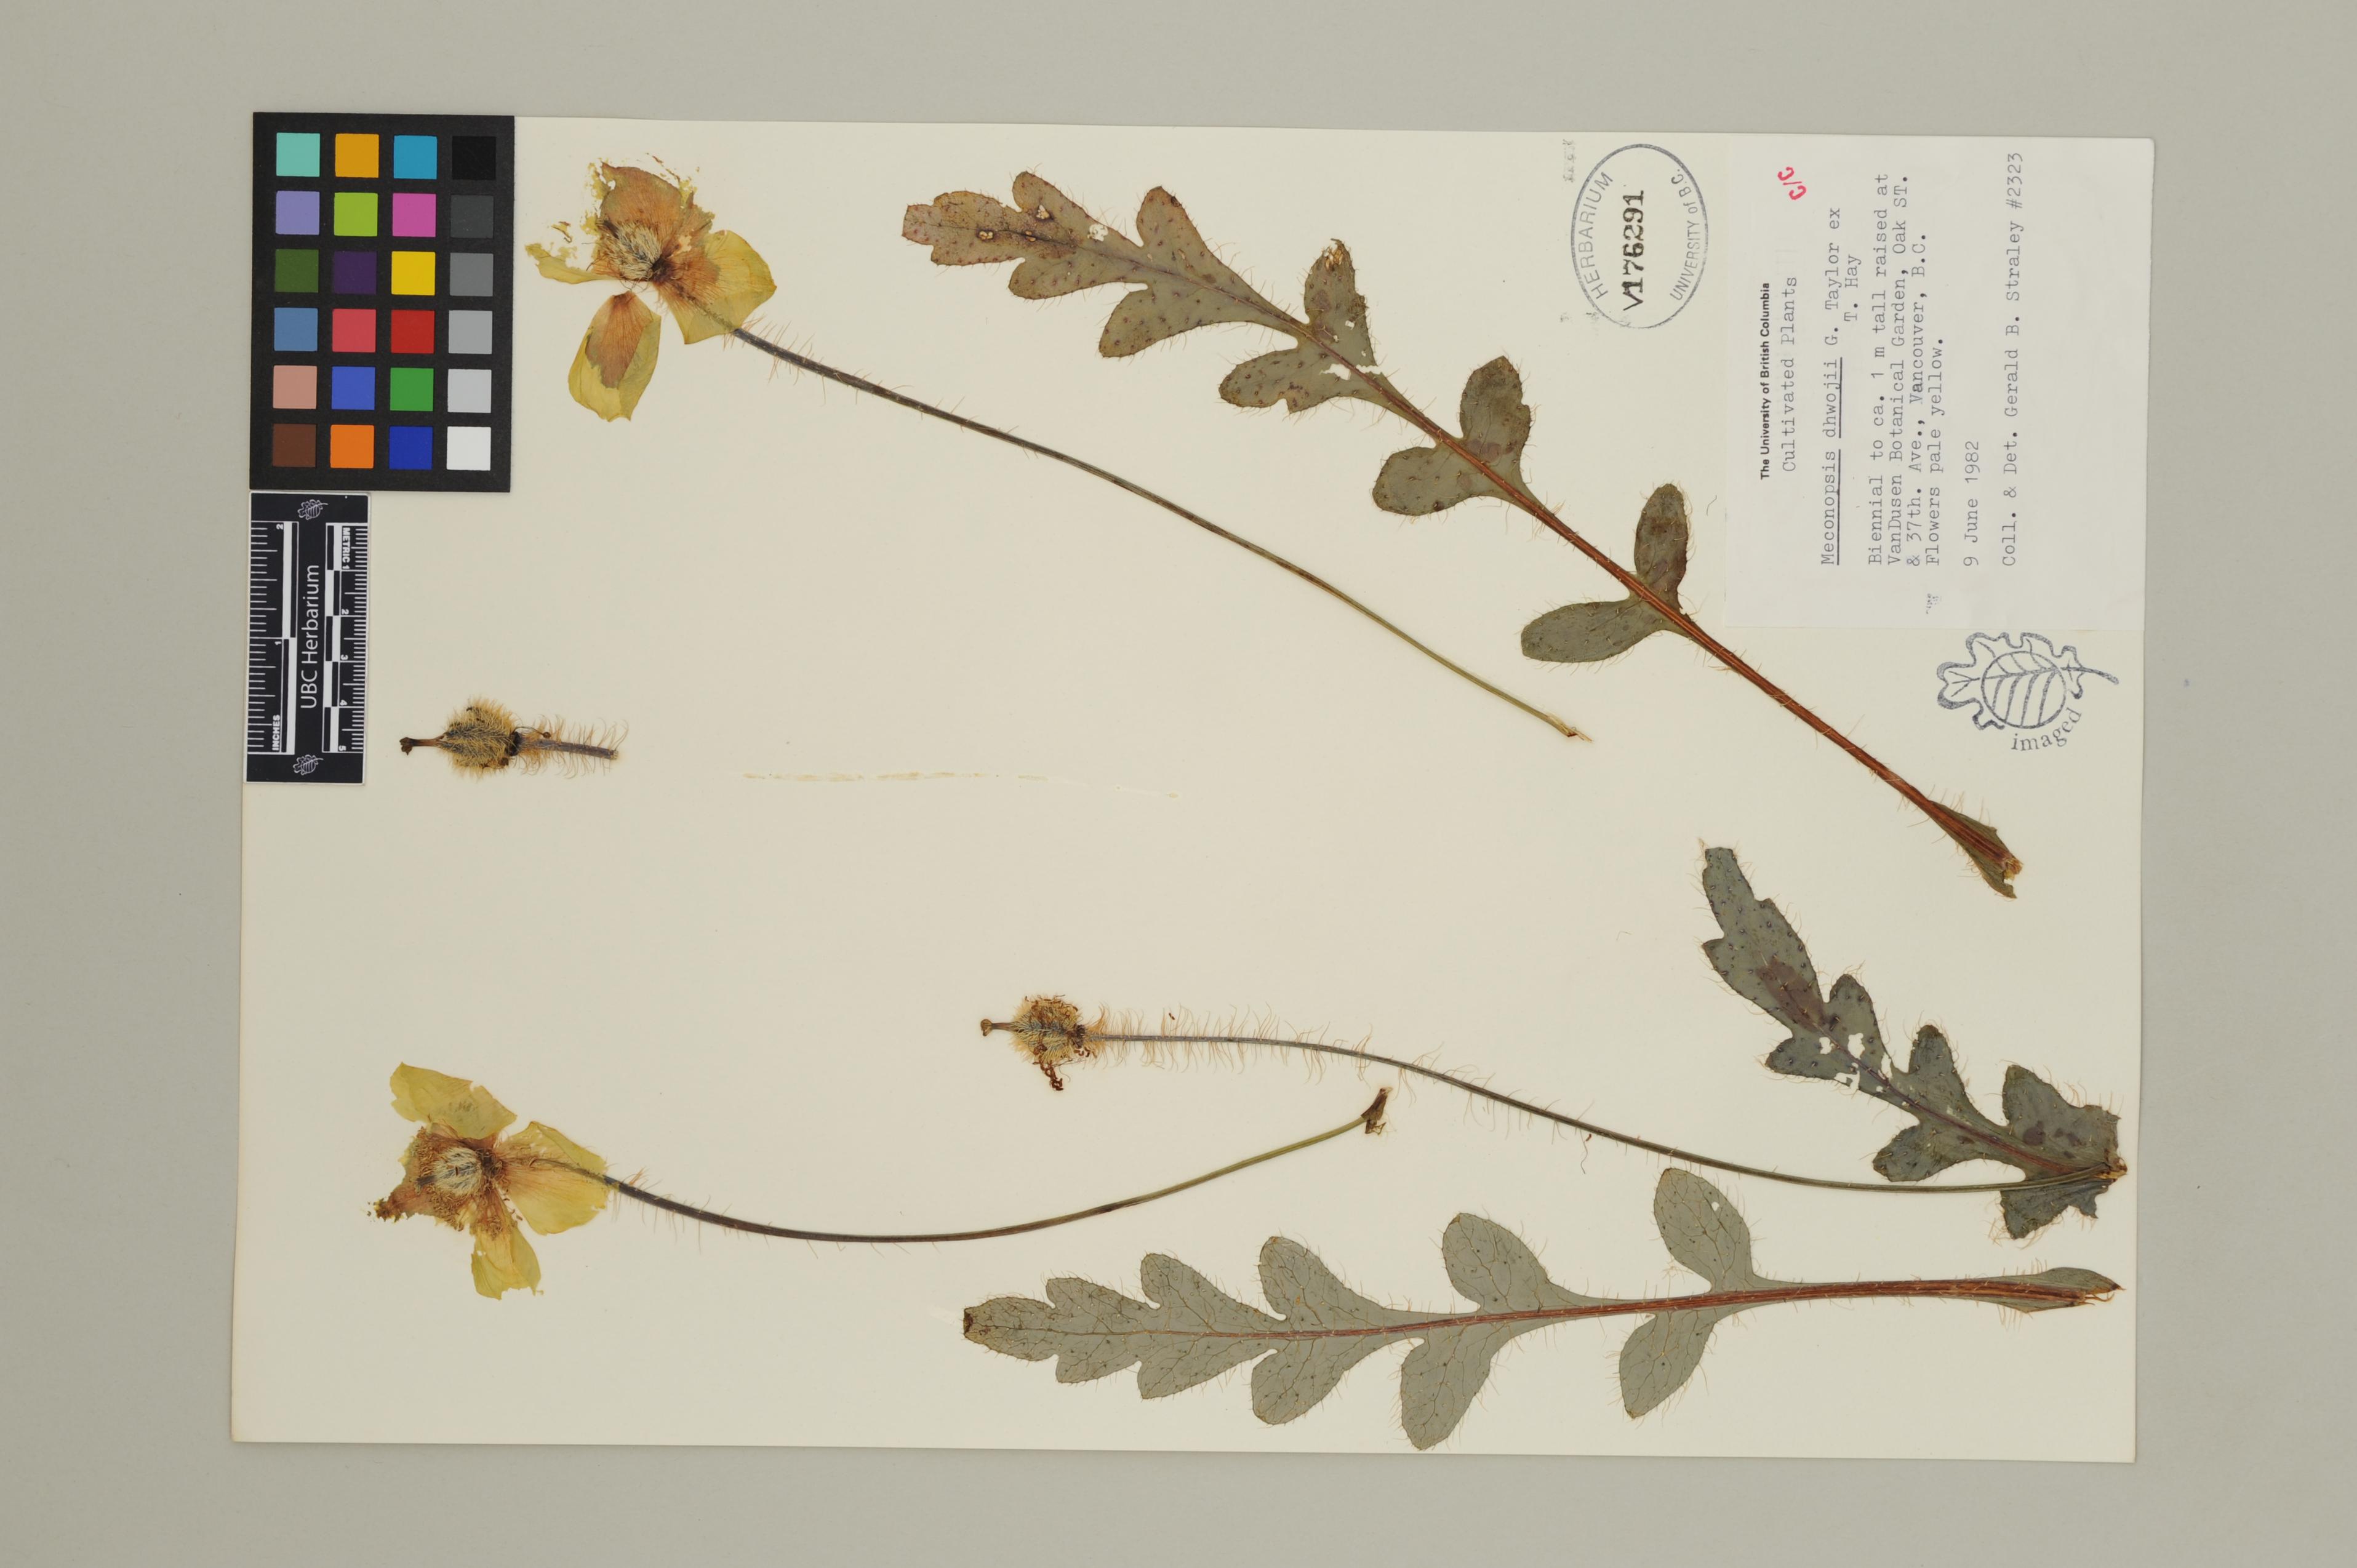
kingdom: Plantae
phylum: Tracheophyta
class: Magnoliopsida
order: Ranunculales
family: Papaveraceae
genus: Meconopsis
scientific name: Meconopsis dhwojii
